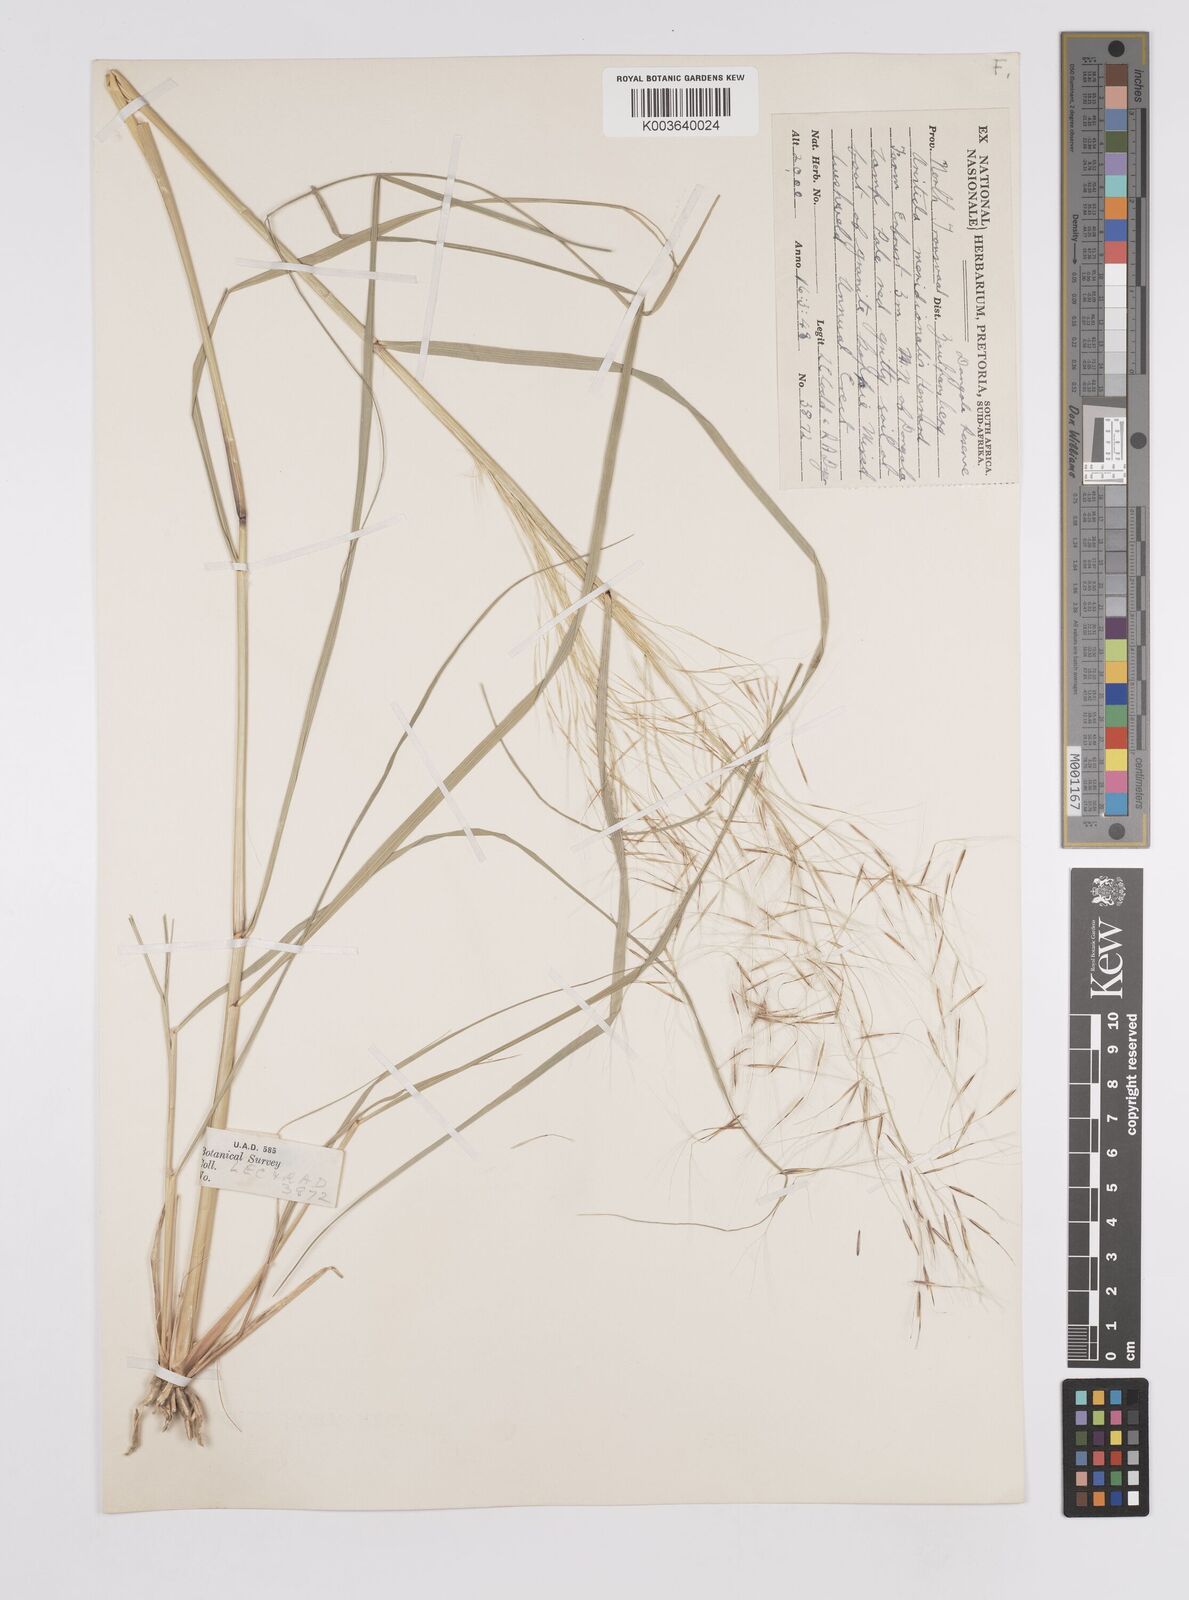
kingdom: Plantae
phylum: Tracheophyta
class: Liliopsida
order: Poales
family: Poaceae
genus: Aristida
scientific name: Aristida meridionalis
